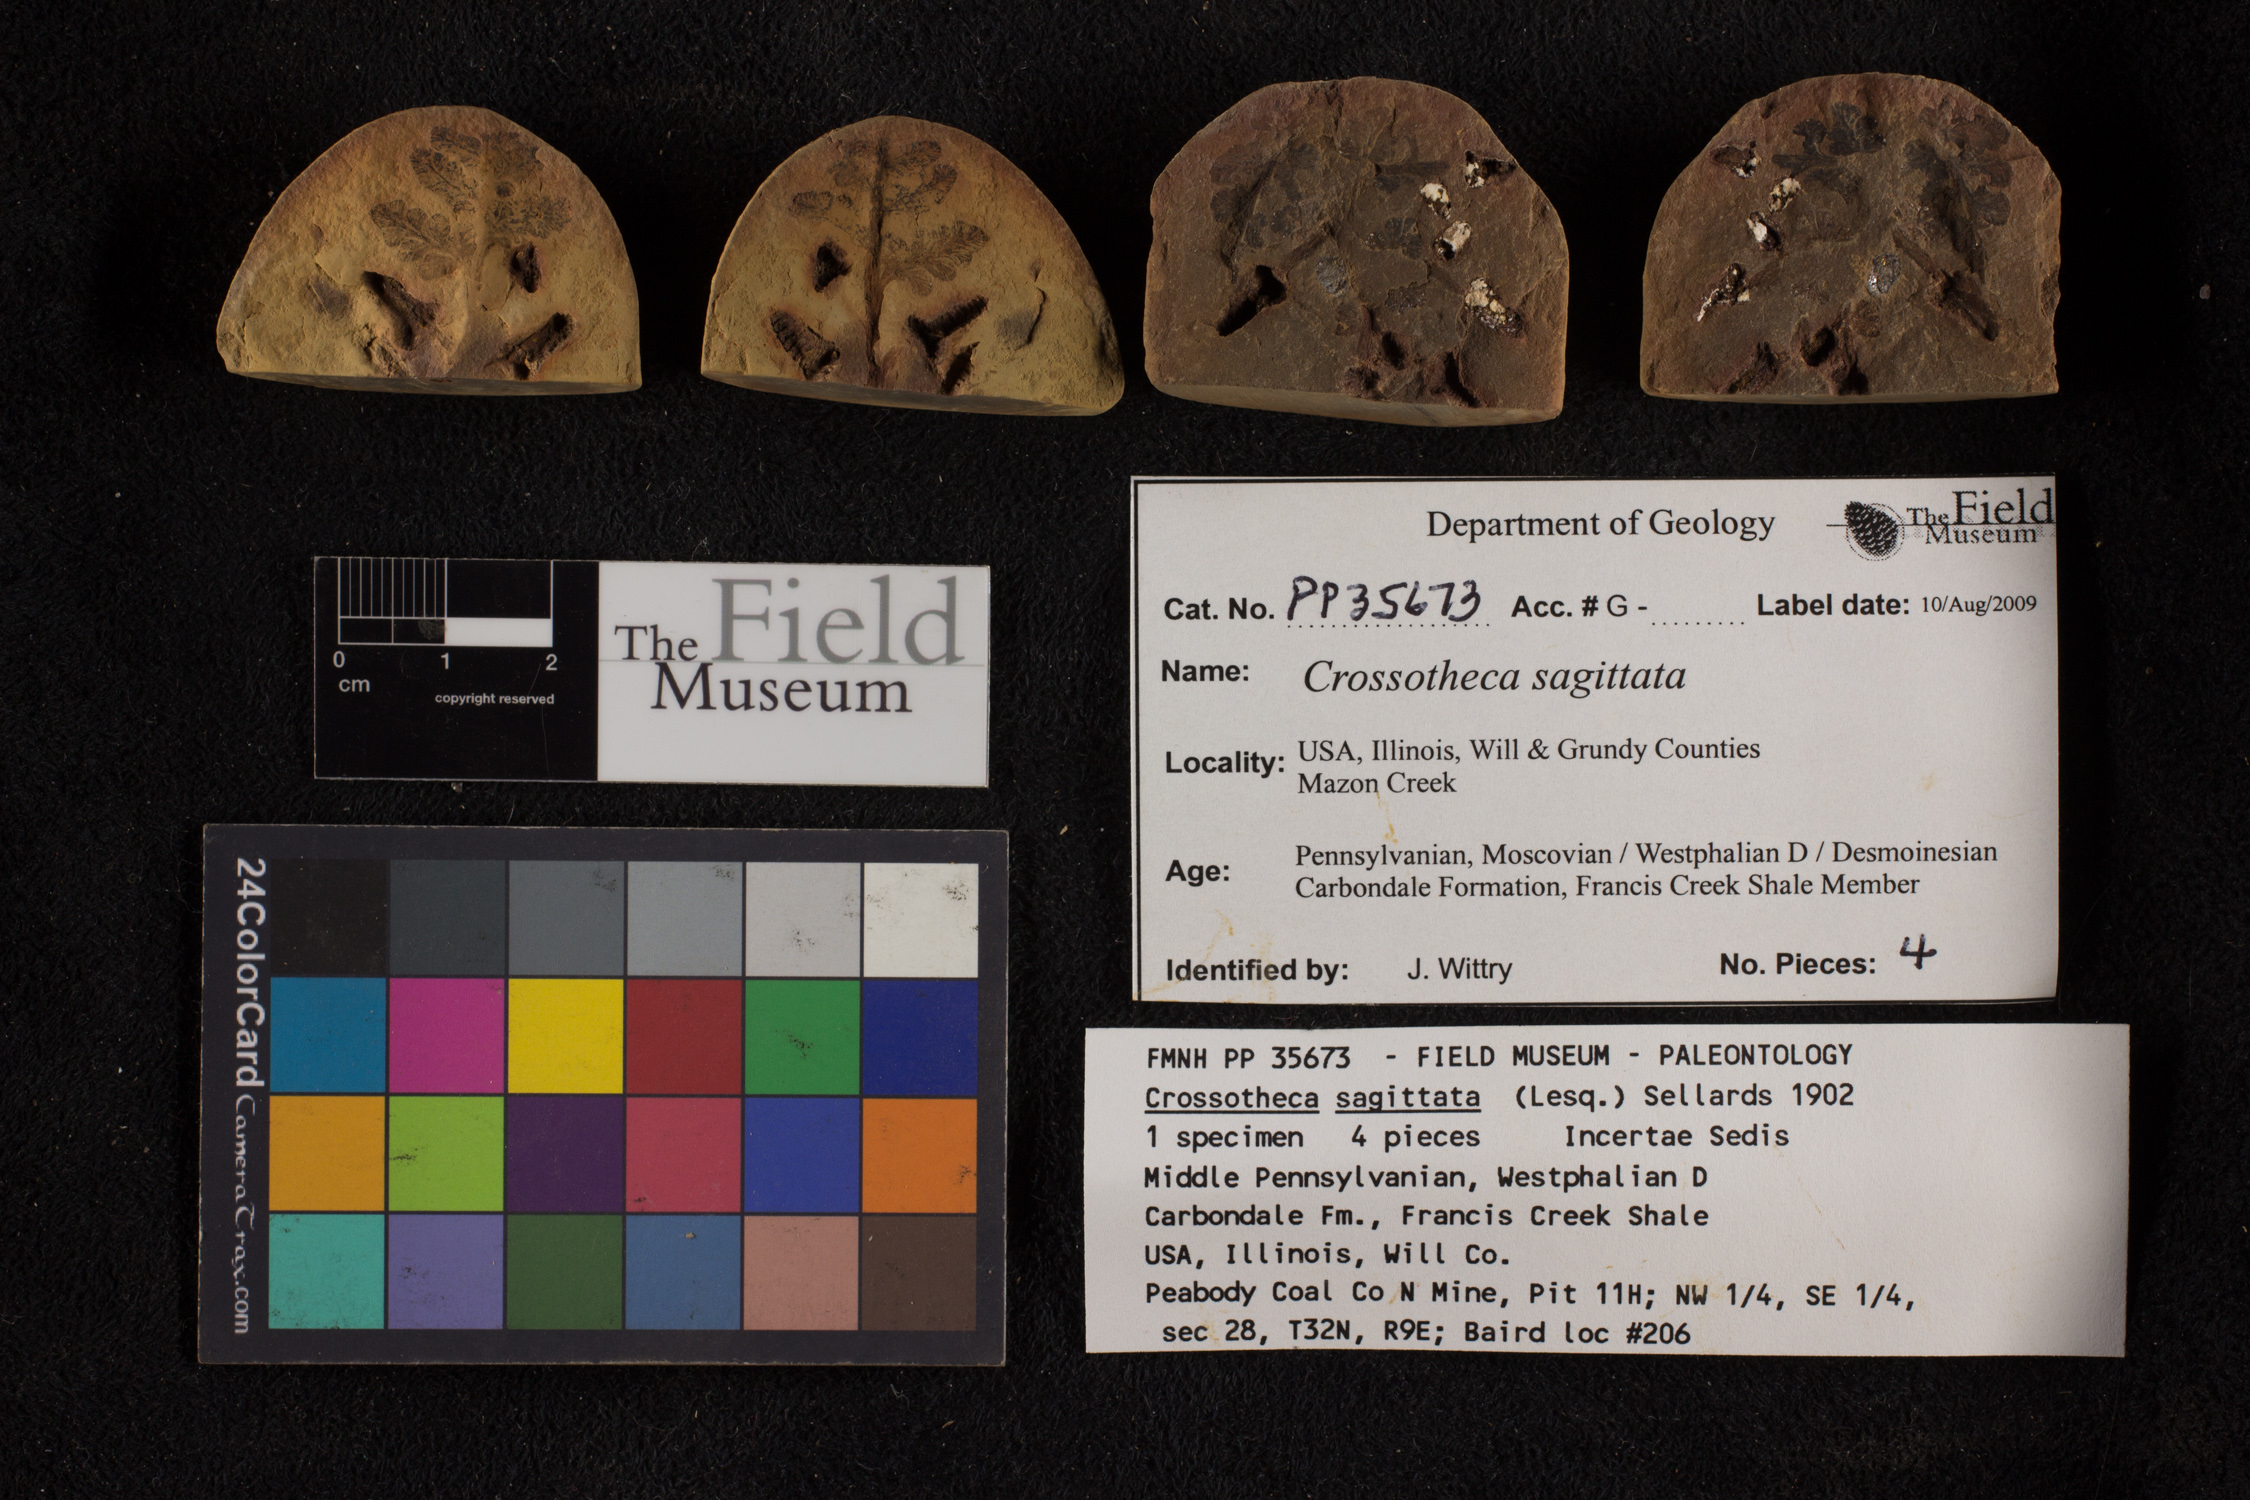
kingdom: Plantae
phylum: Tracheophyta
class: Polypodiopsida
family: Stauropteridaceae
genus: Crossotheca
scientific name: Crossotheca
